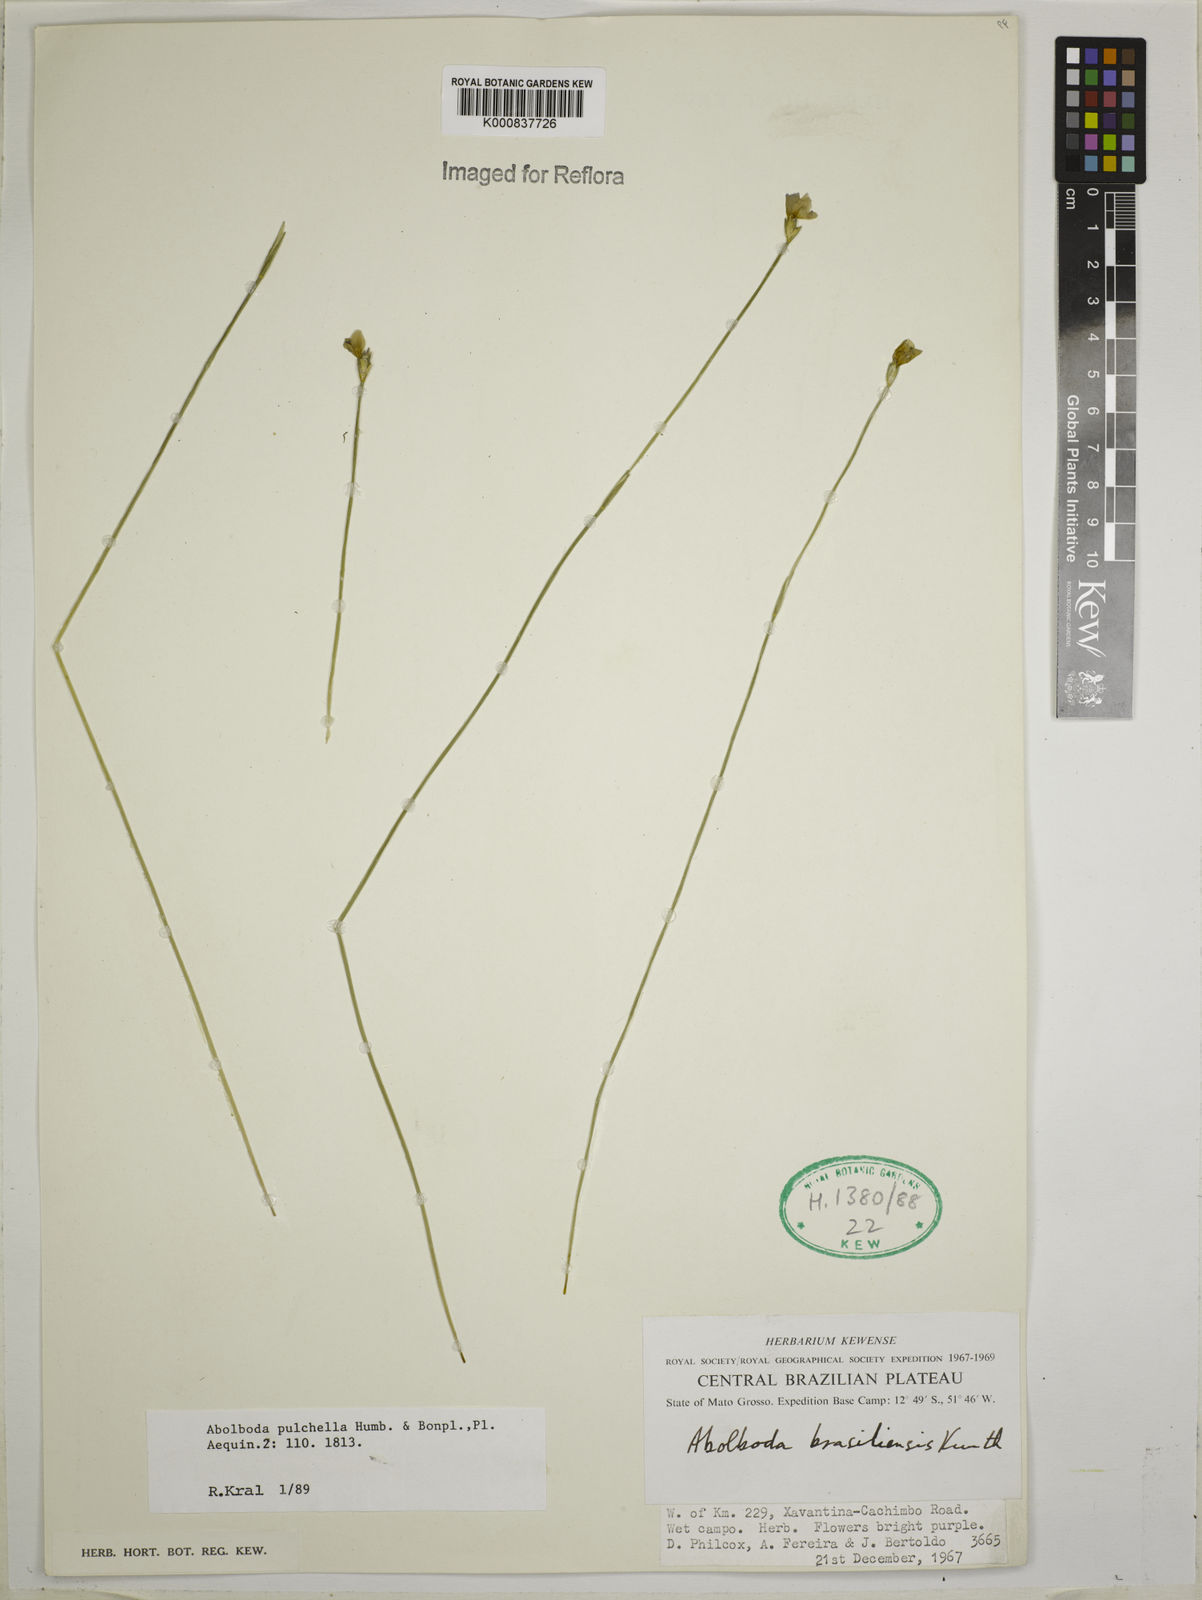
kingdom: Plantae
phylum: Tracheophyta
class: Liliopsida
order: Poales
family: Xyridaceae
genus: Abolboda
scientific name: Abolboda pulchella
